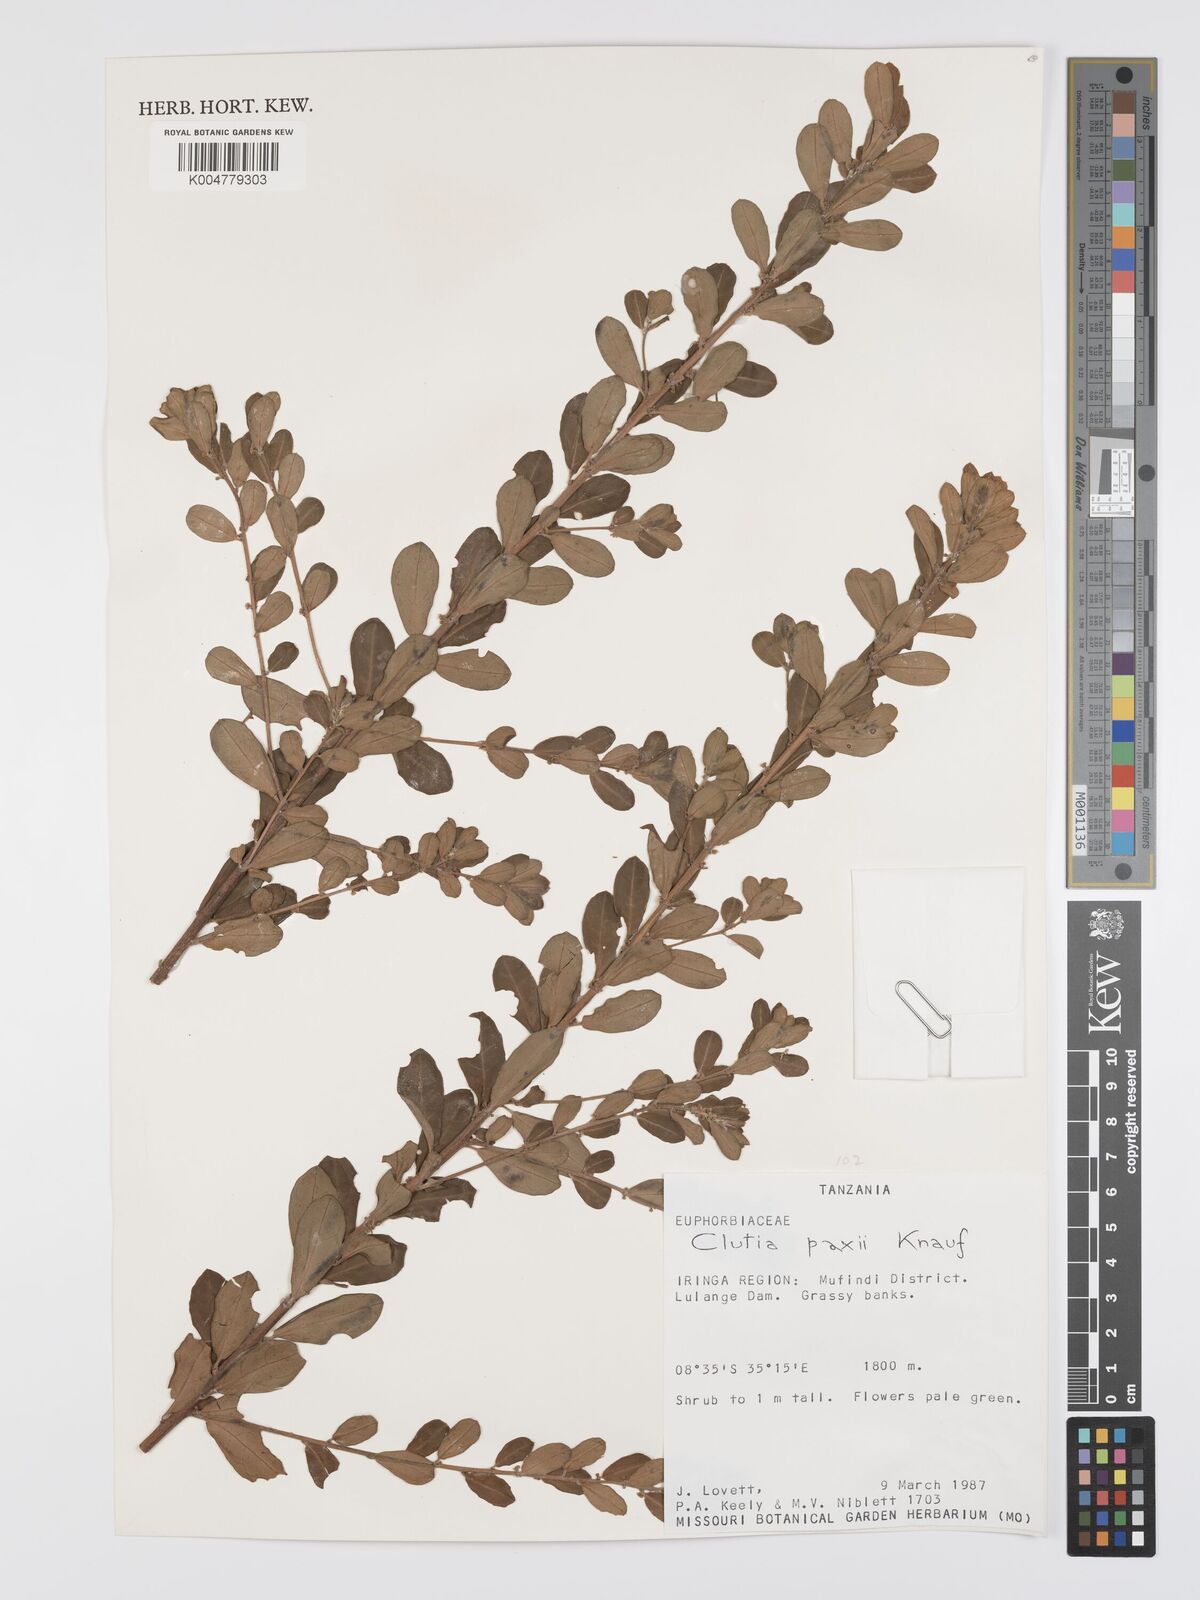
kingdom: Plantae
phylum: Tracheophyta
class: Magnoliopsida
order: Malpighiales
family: Peraceae
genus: Clutia
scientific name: Clutia paxii
